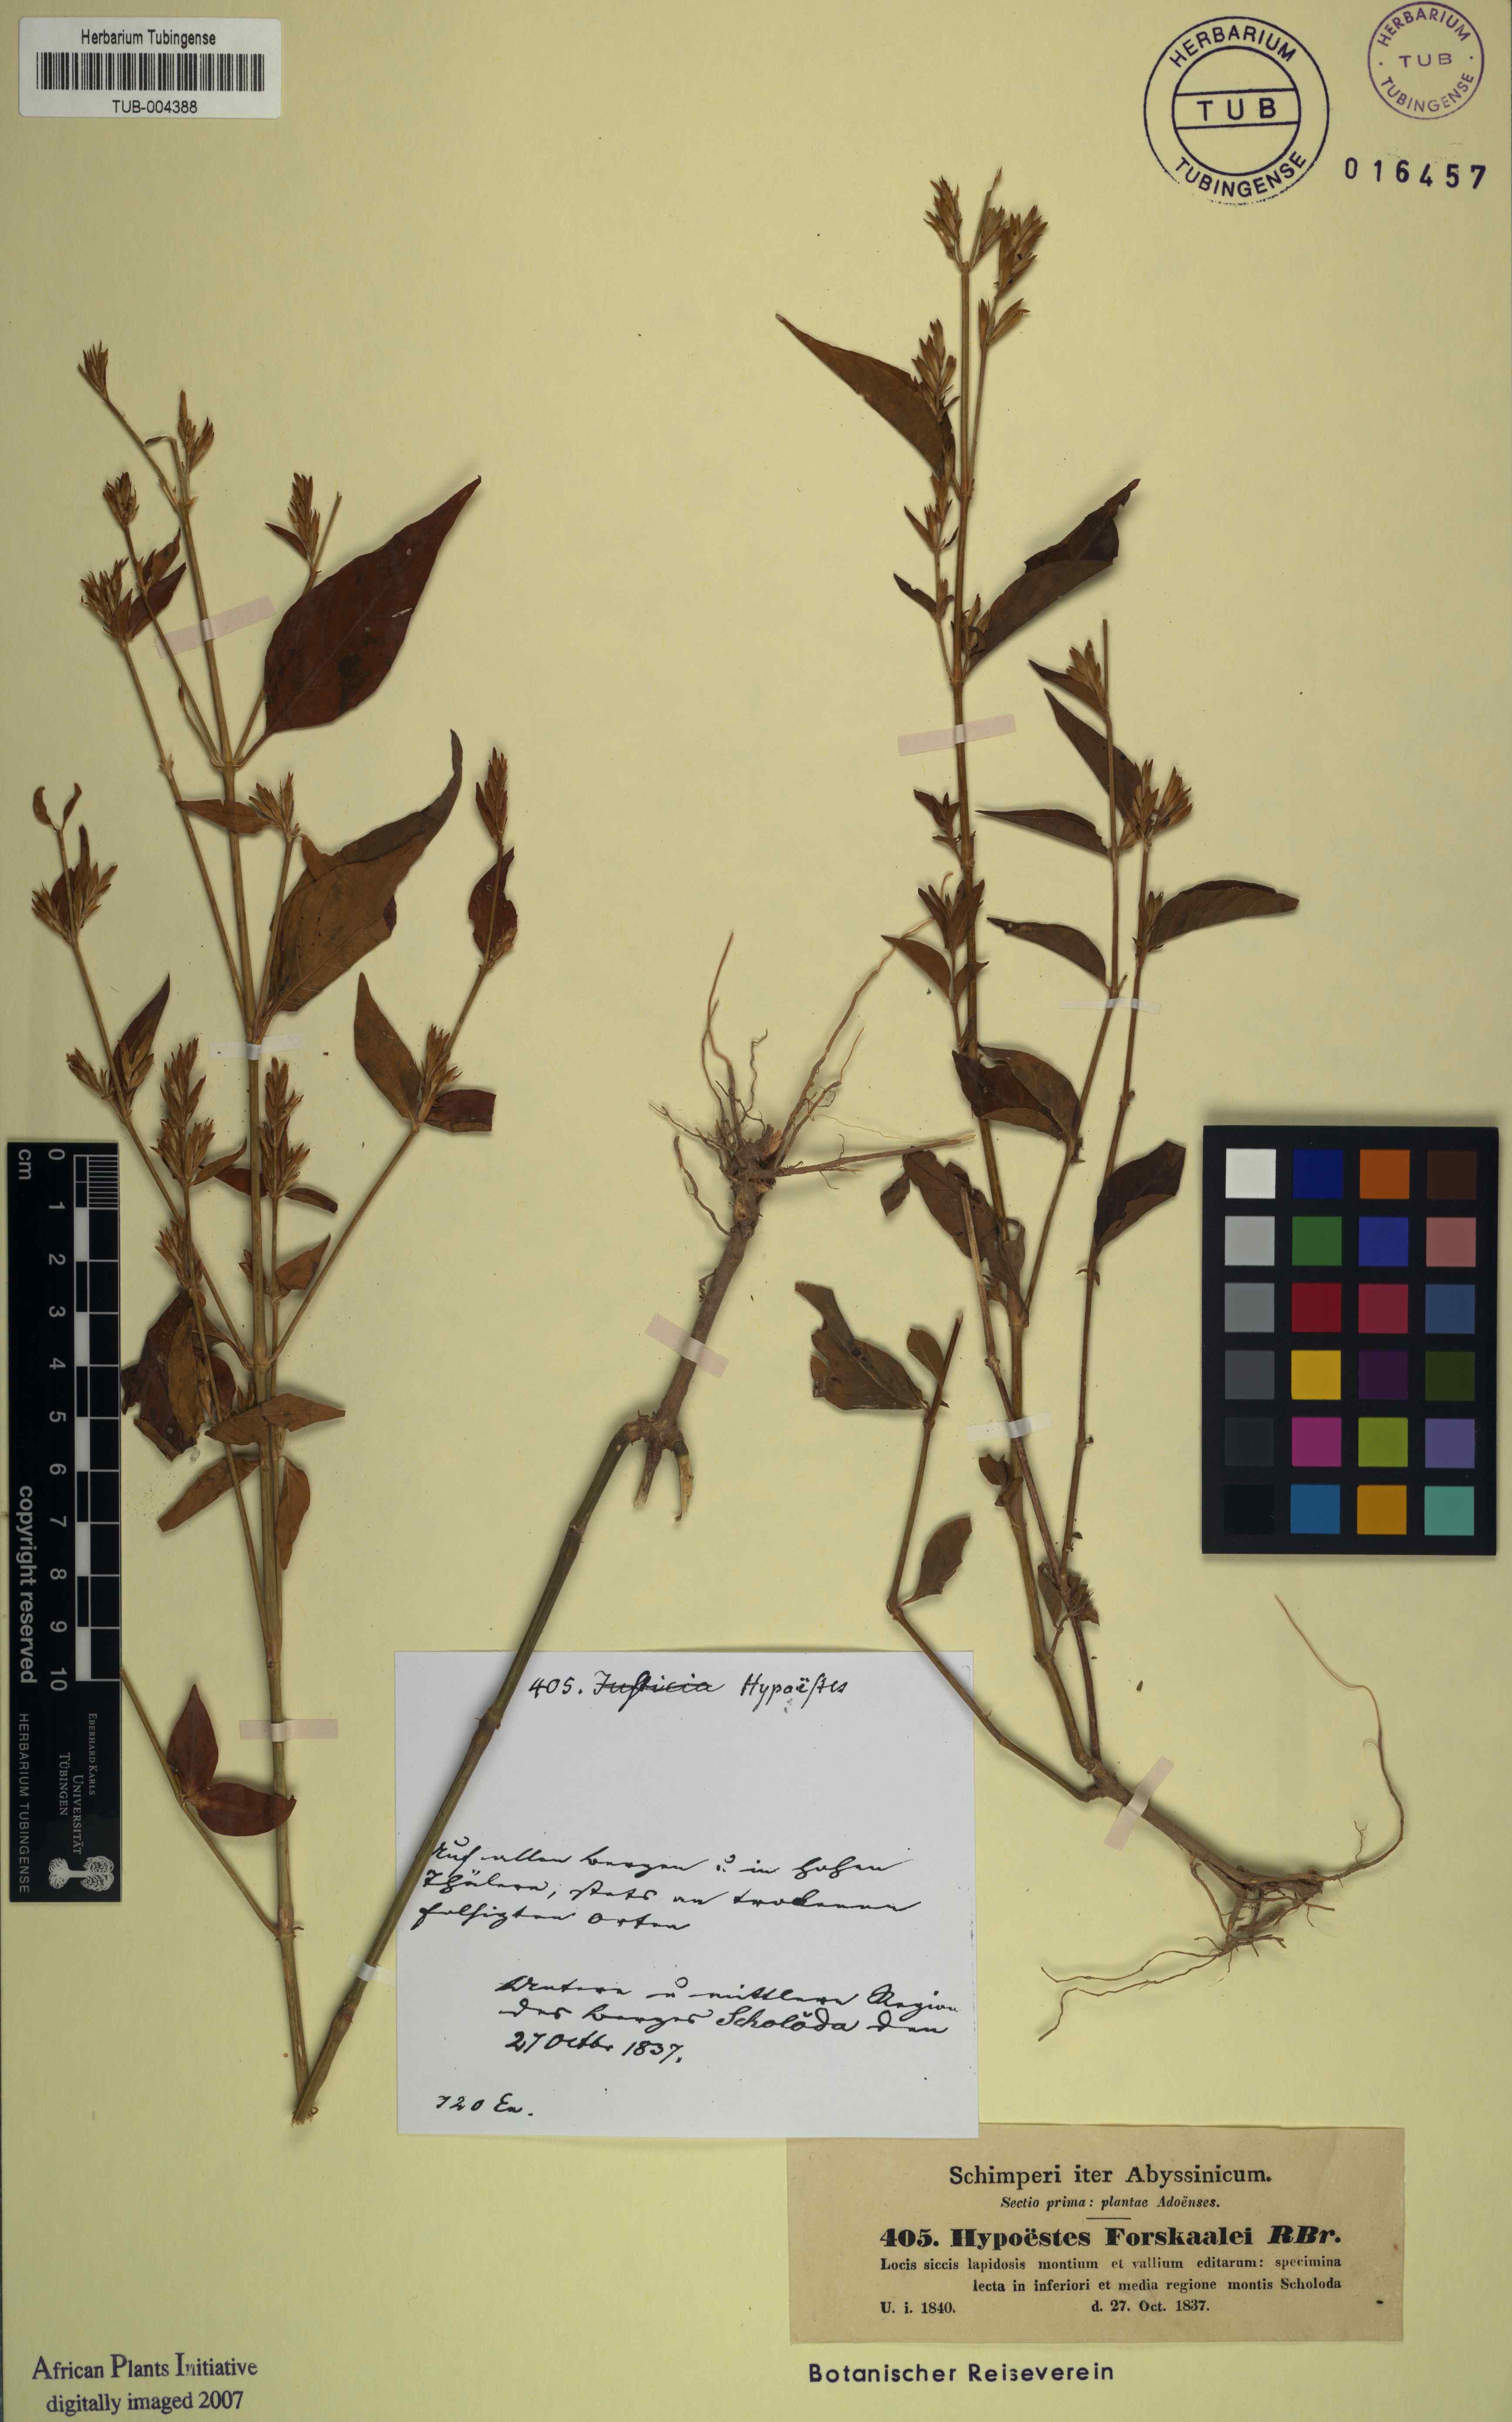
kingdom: Plantae
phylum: Tracheophyta
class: Magnoliopsida
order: Lamiales
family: Acanthaceae
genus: Hypoestes
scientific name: Hypoestes aristata
